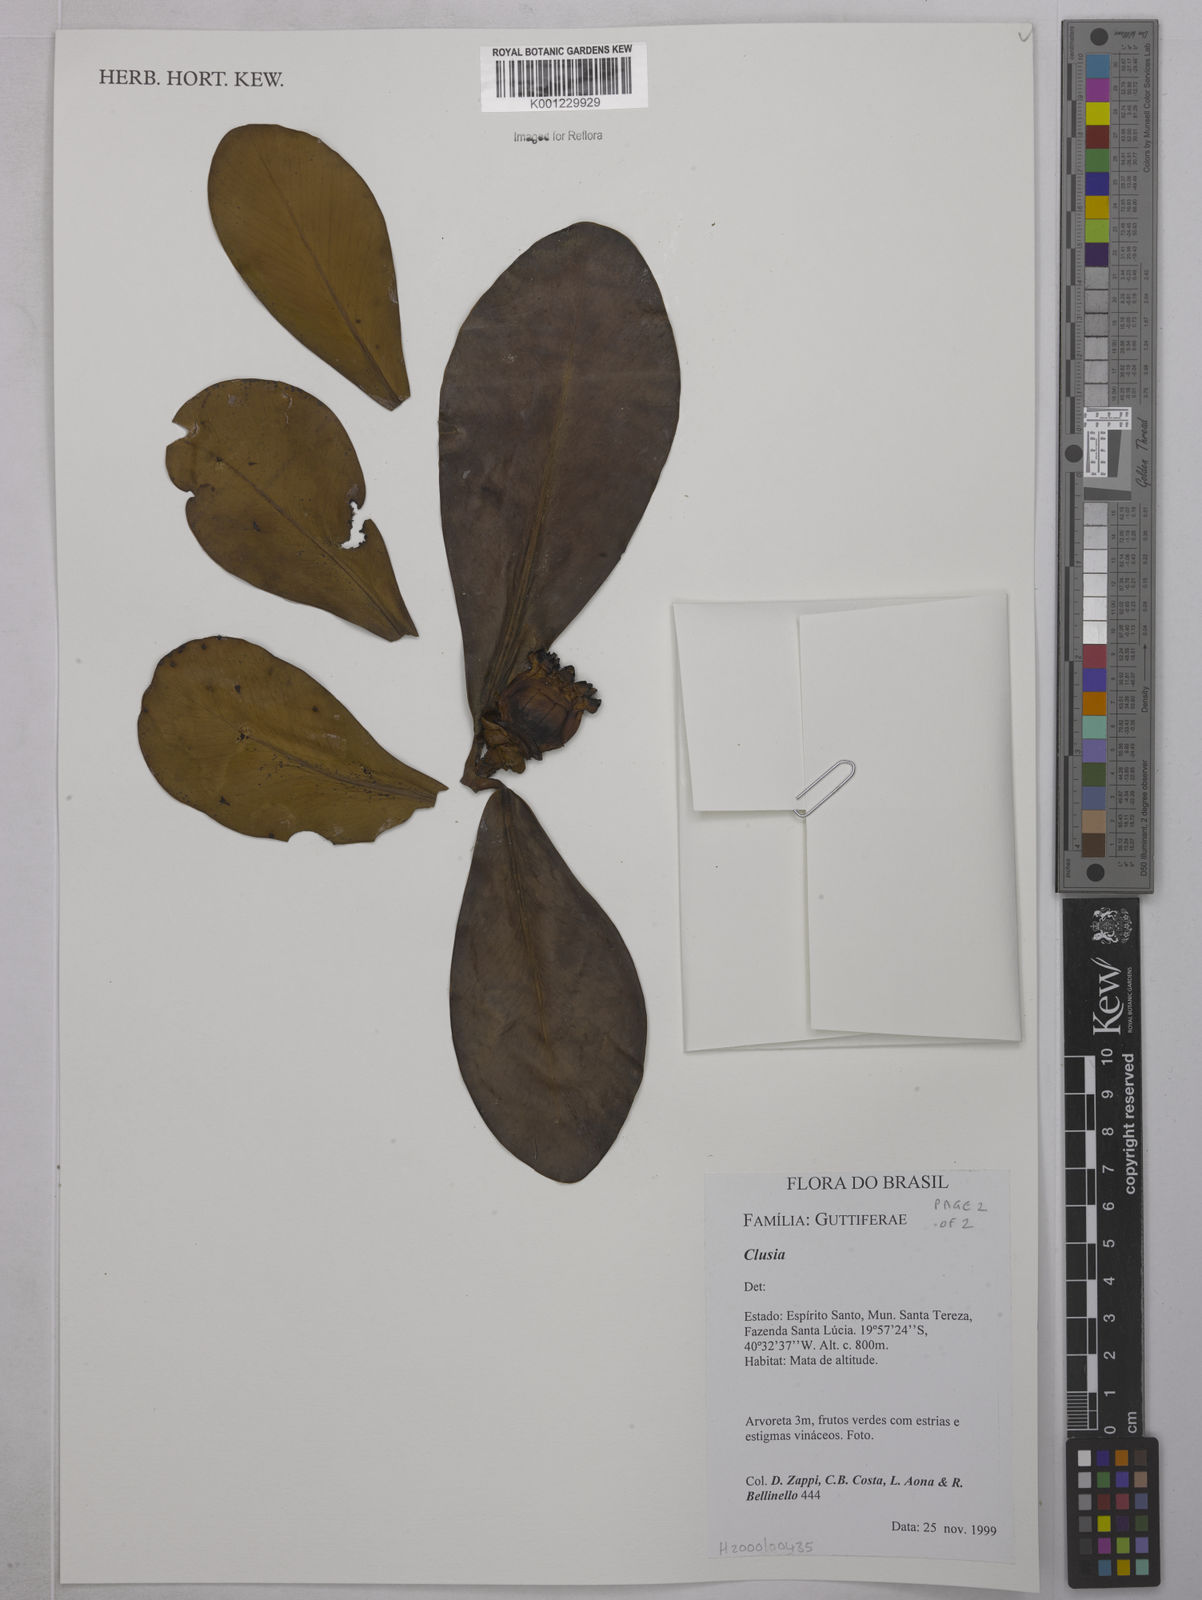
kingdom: Plantae
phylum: Tracheophyta
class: Magnoliopsida
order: Malpighiales
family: Clusiaceae
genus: Clusia
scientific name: Clusia
